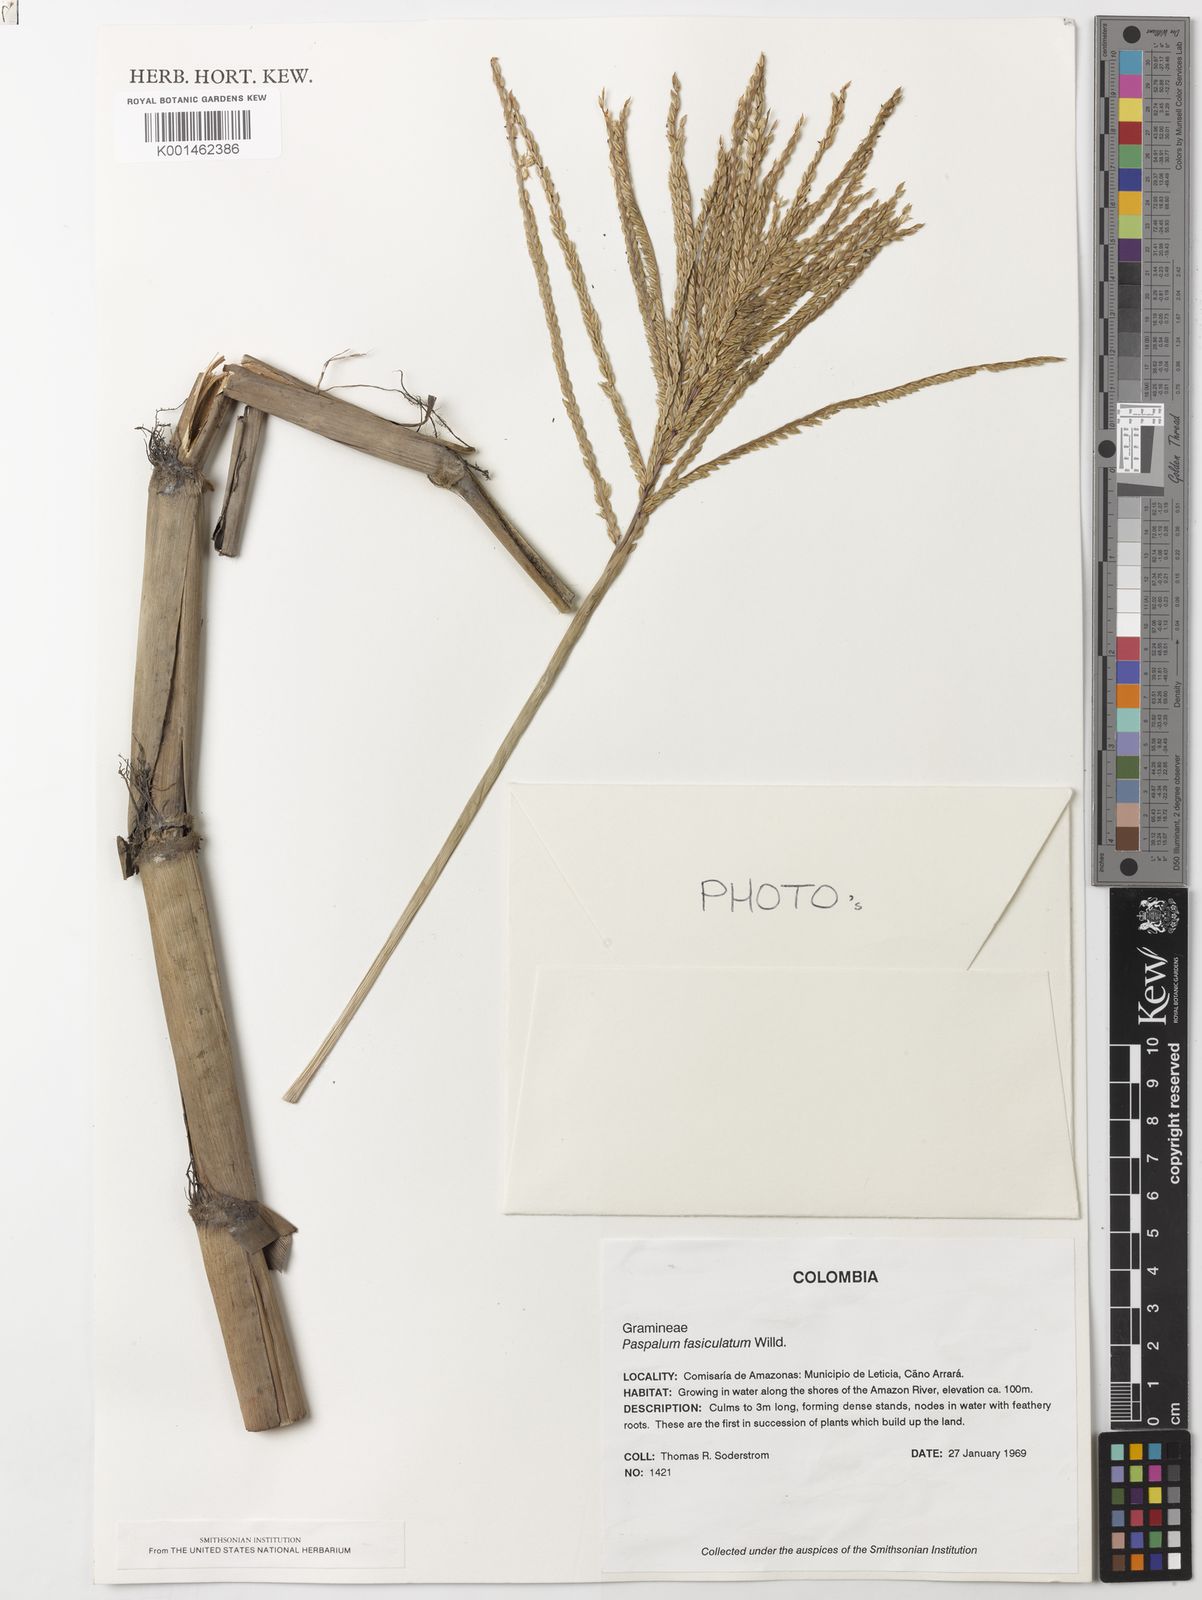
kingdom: Plantae
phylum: Tracheophyta
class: Liliopsida
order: Poales
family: Poaceae
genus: Paspalum
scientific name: Paspalum
